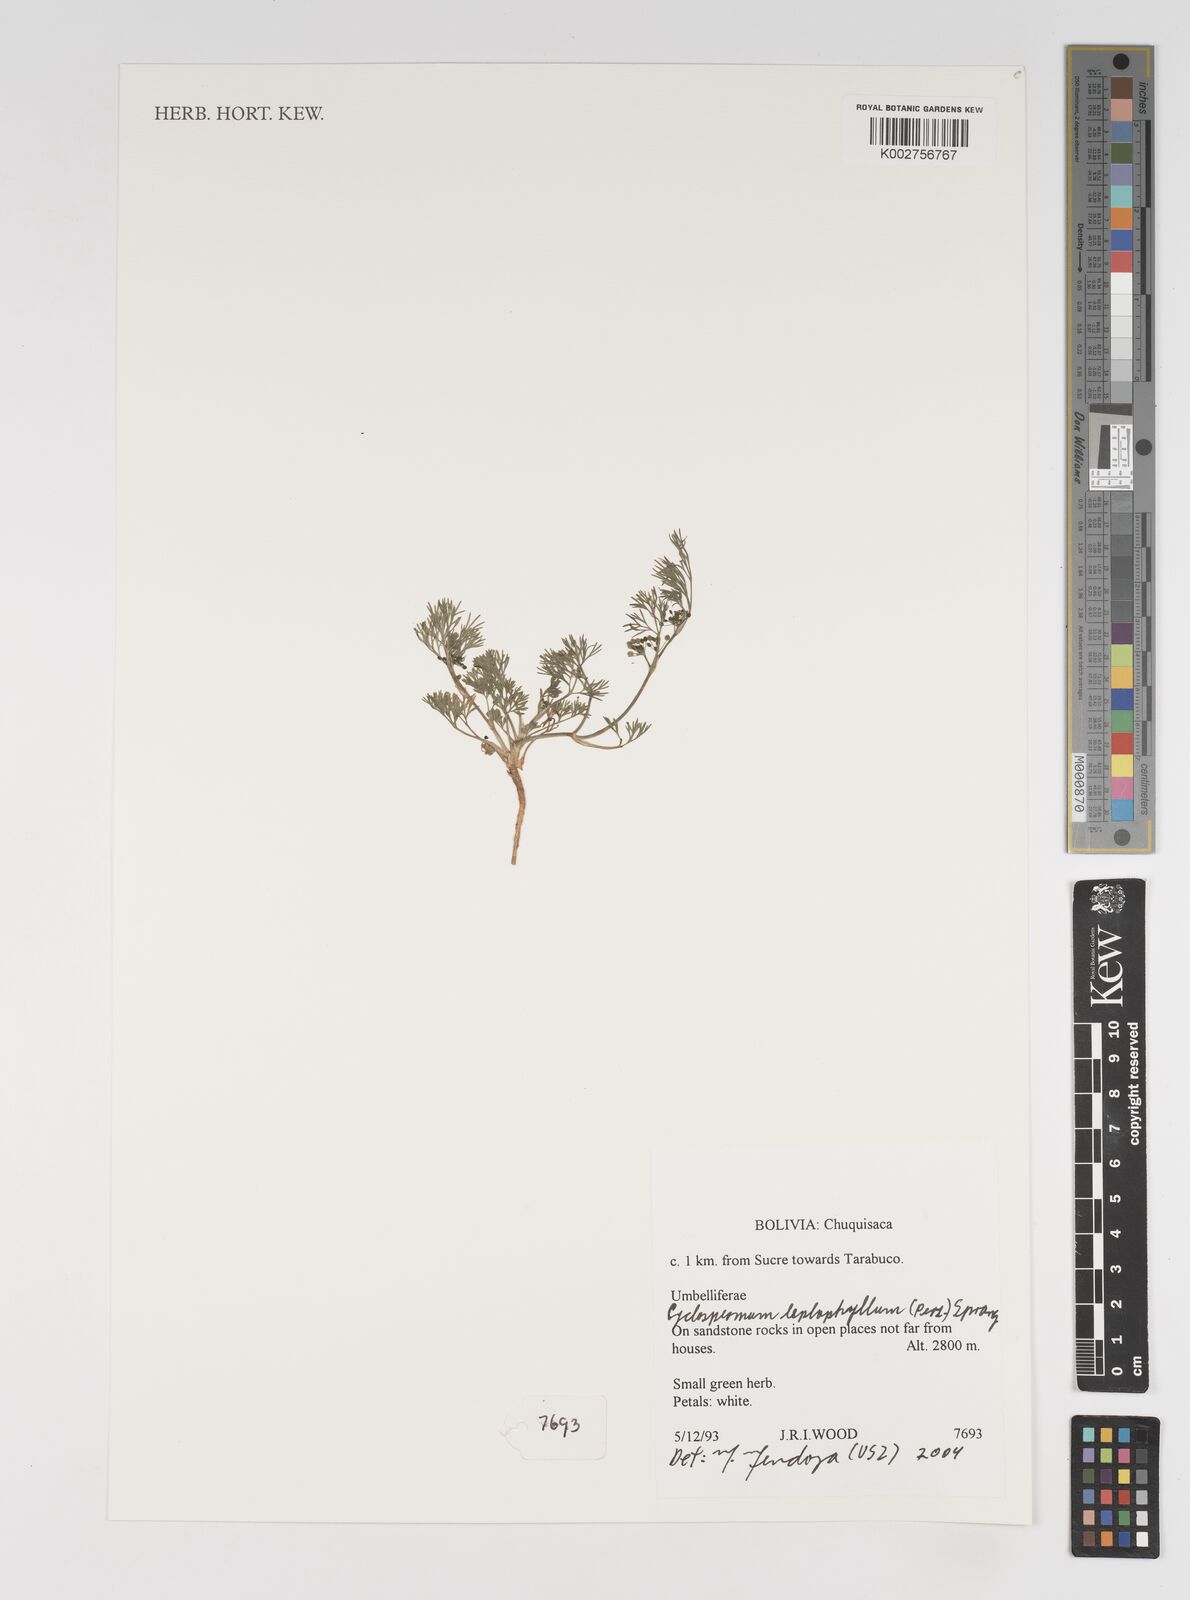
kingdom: Plantae
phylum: Tracheophyta
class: Magnoliopsida
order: Apiales
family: Apiaceae
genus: Cyclospermum
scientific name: Cyclospermum leptophyllum
